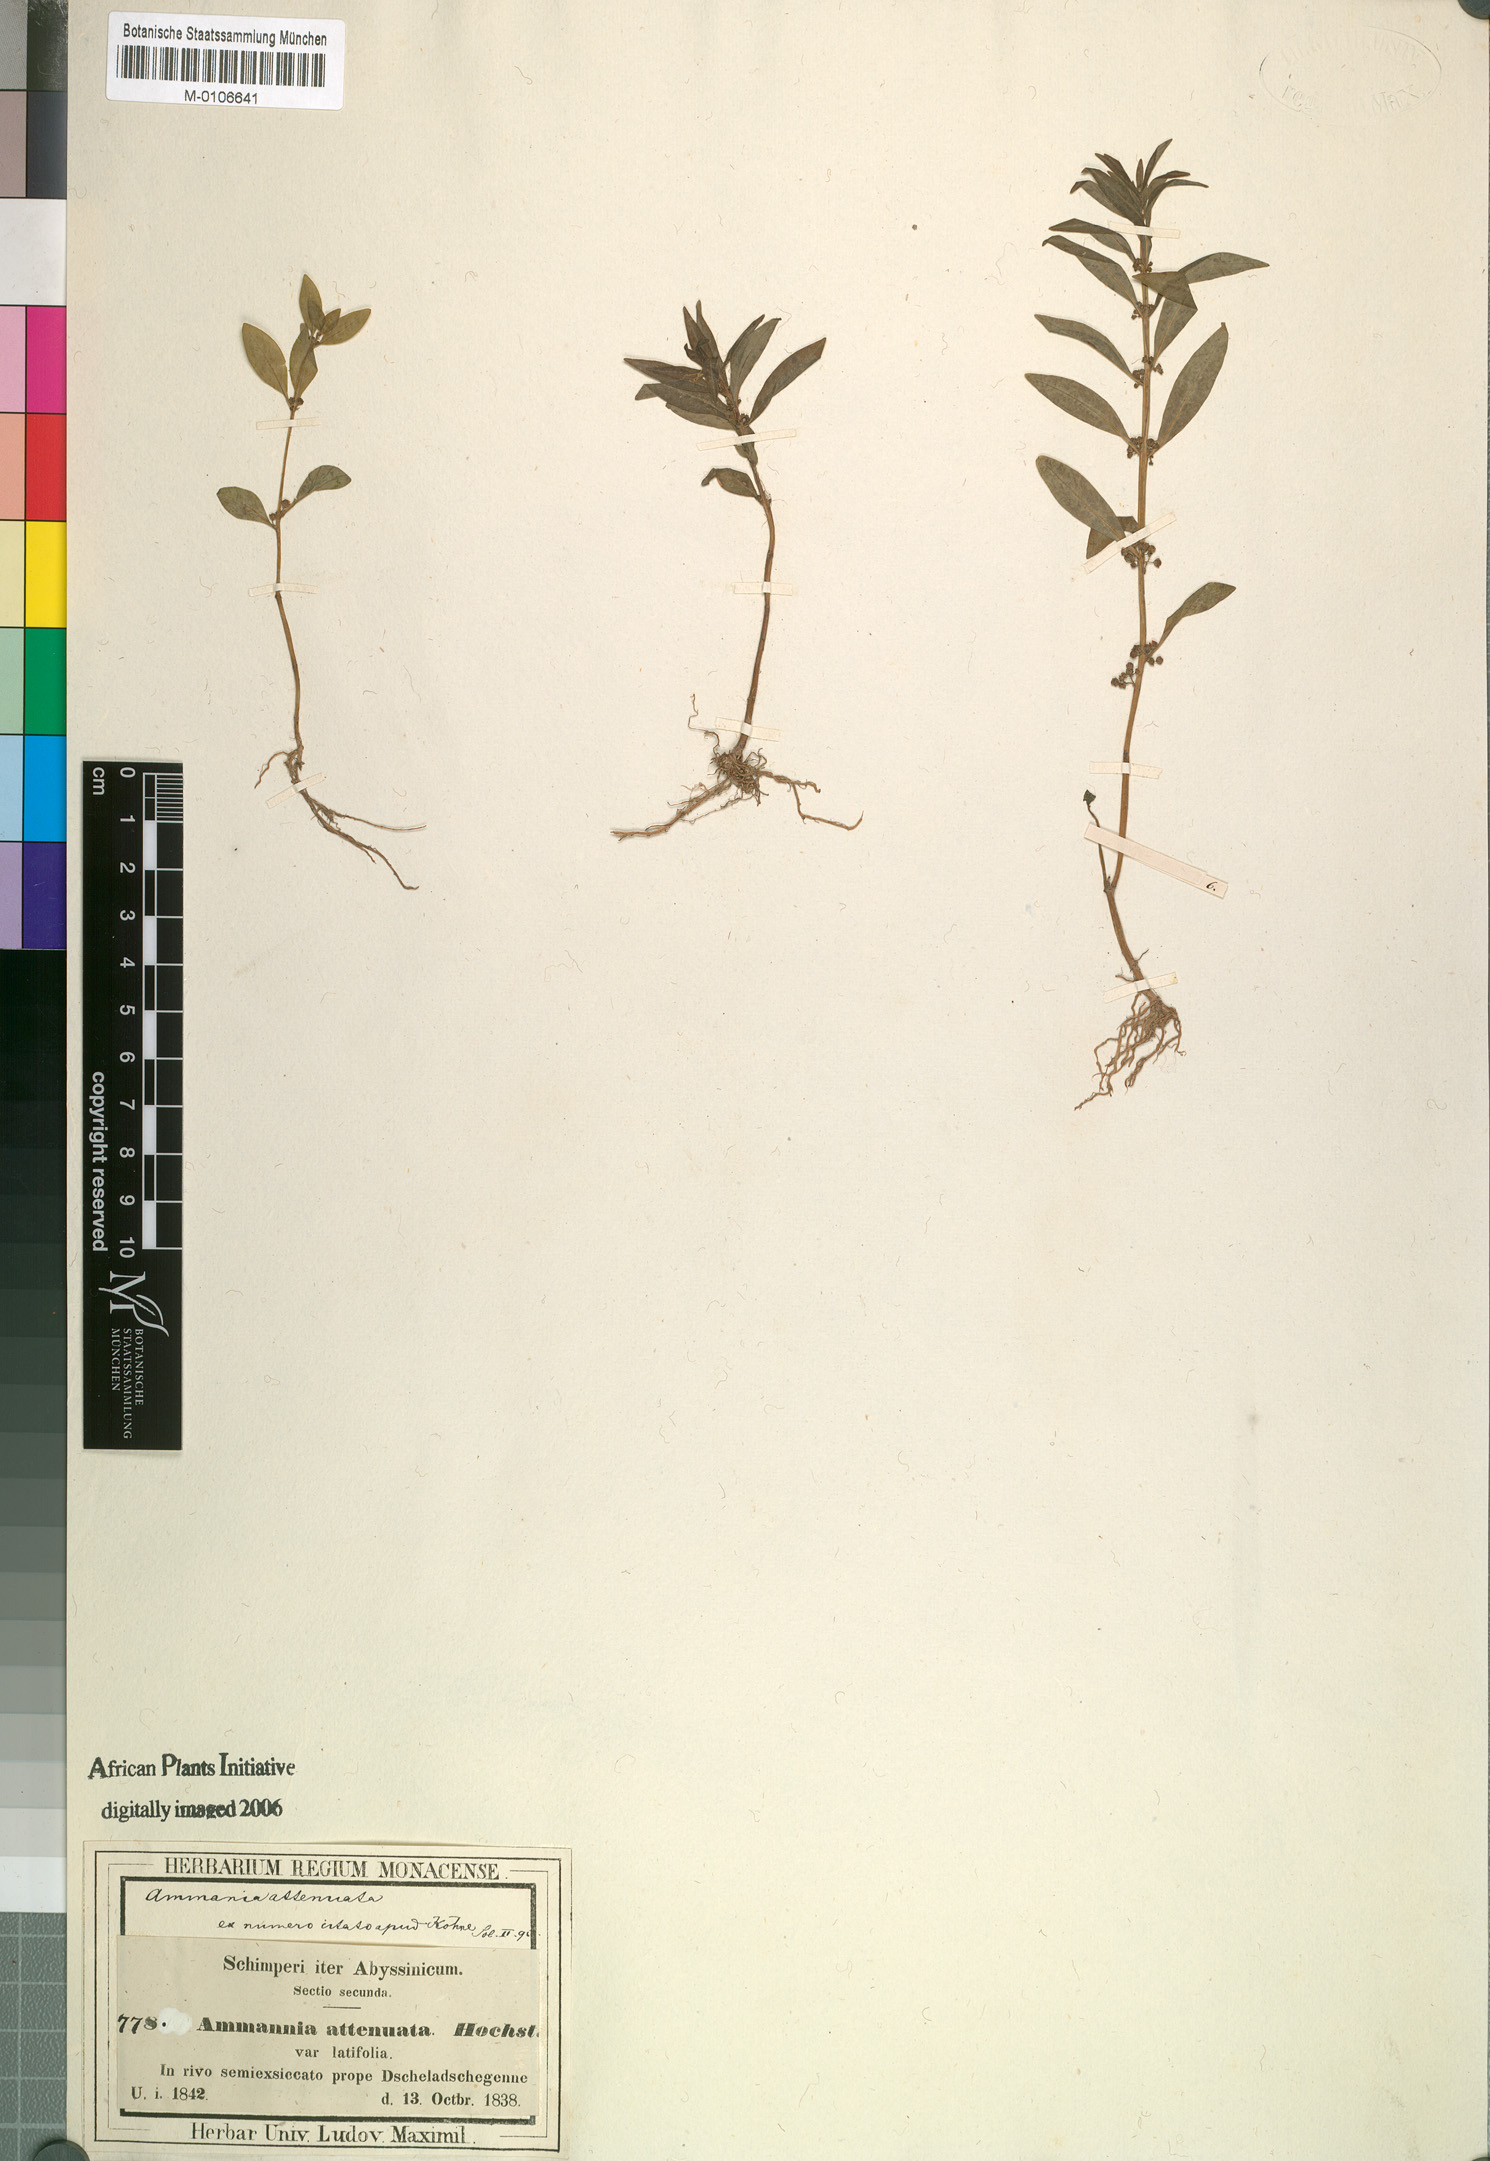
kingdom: Plantae
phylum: Tracheophyta
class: Magnoliopsida
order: Myrtales
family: Lythraceae
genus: Ammannia
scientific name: Ammannia baccifera
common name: Blistering ammania
